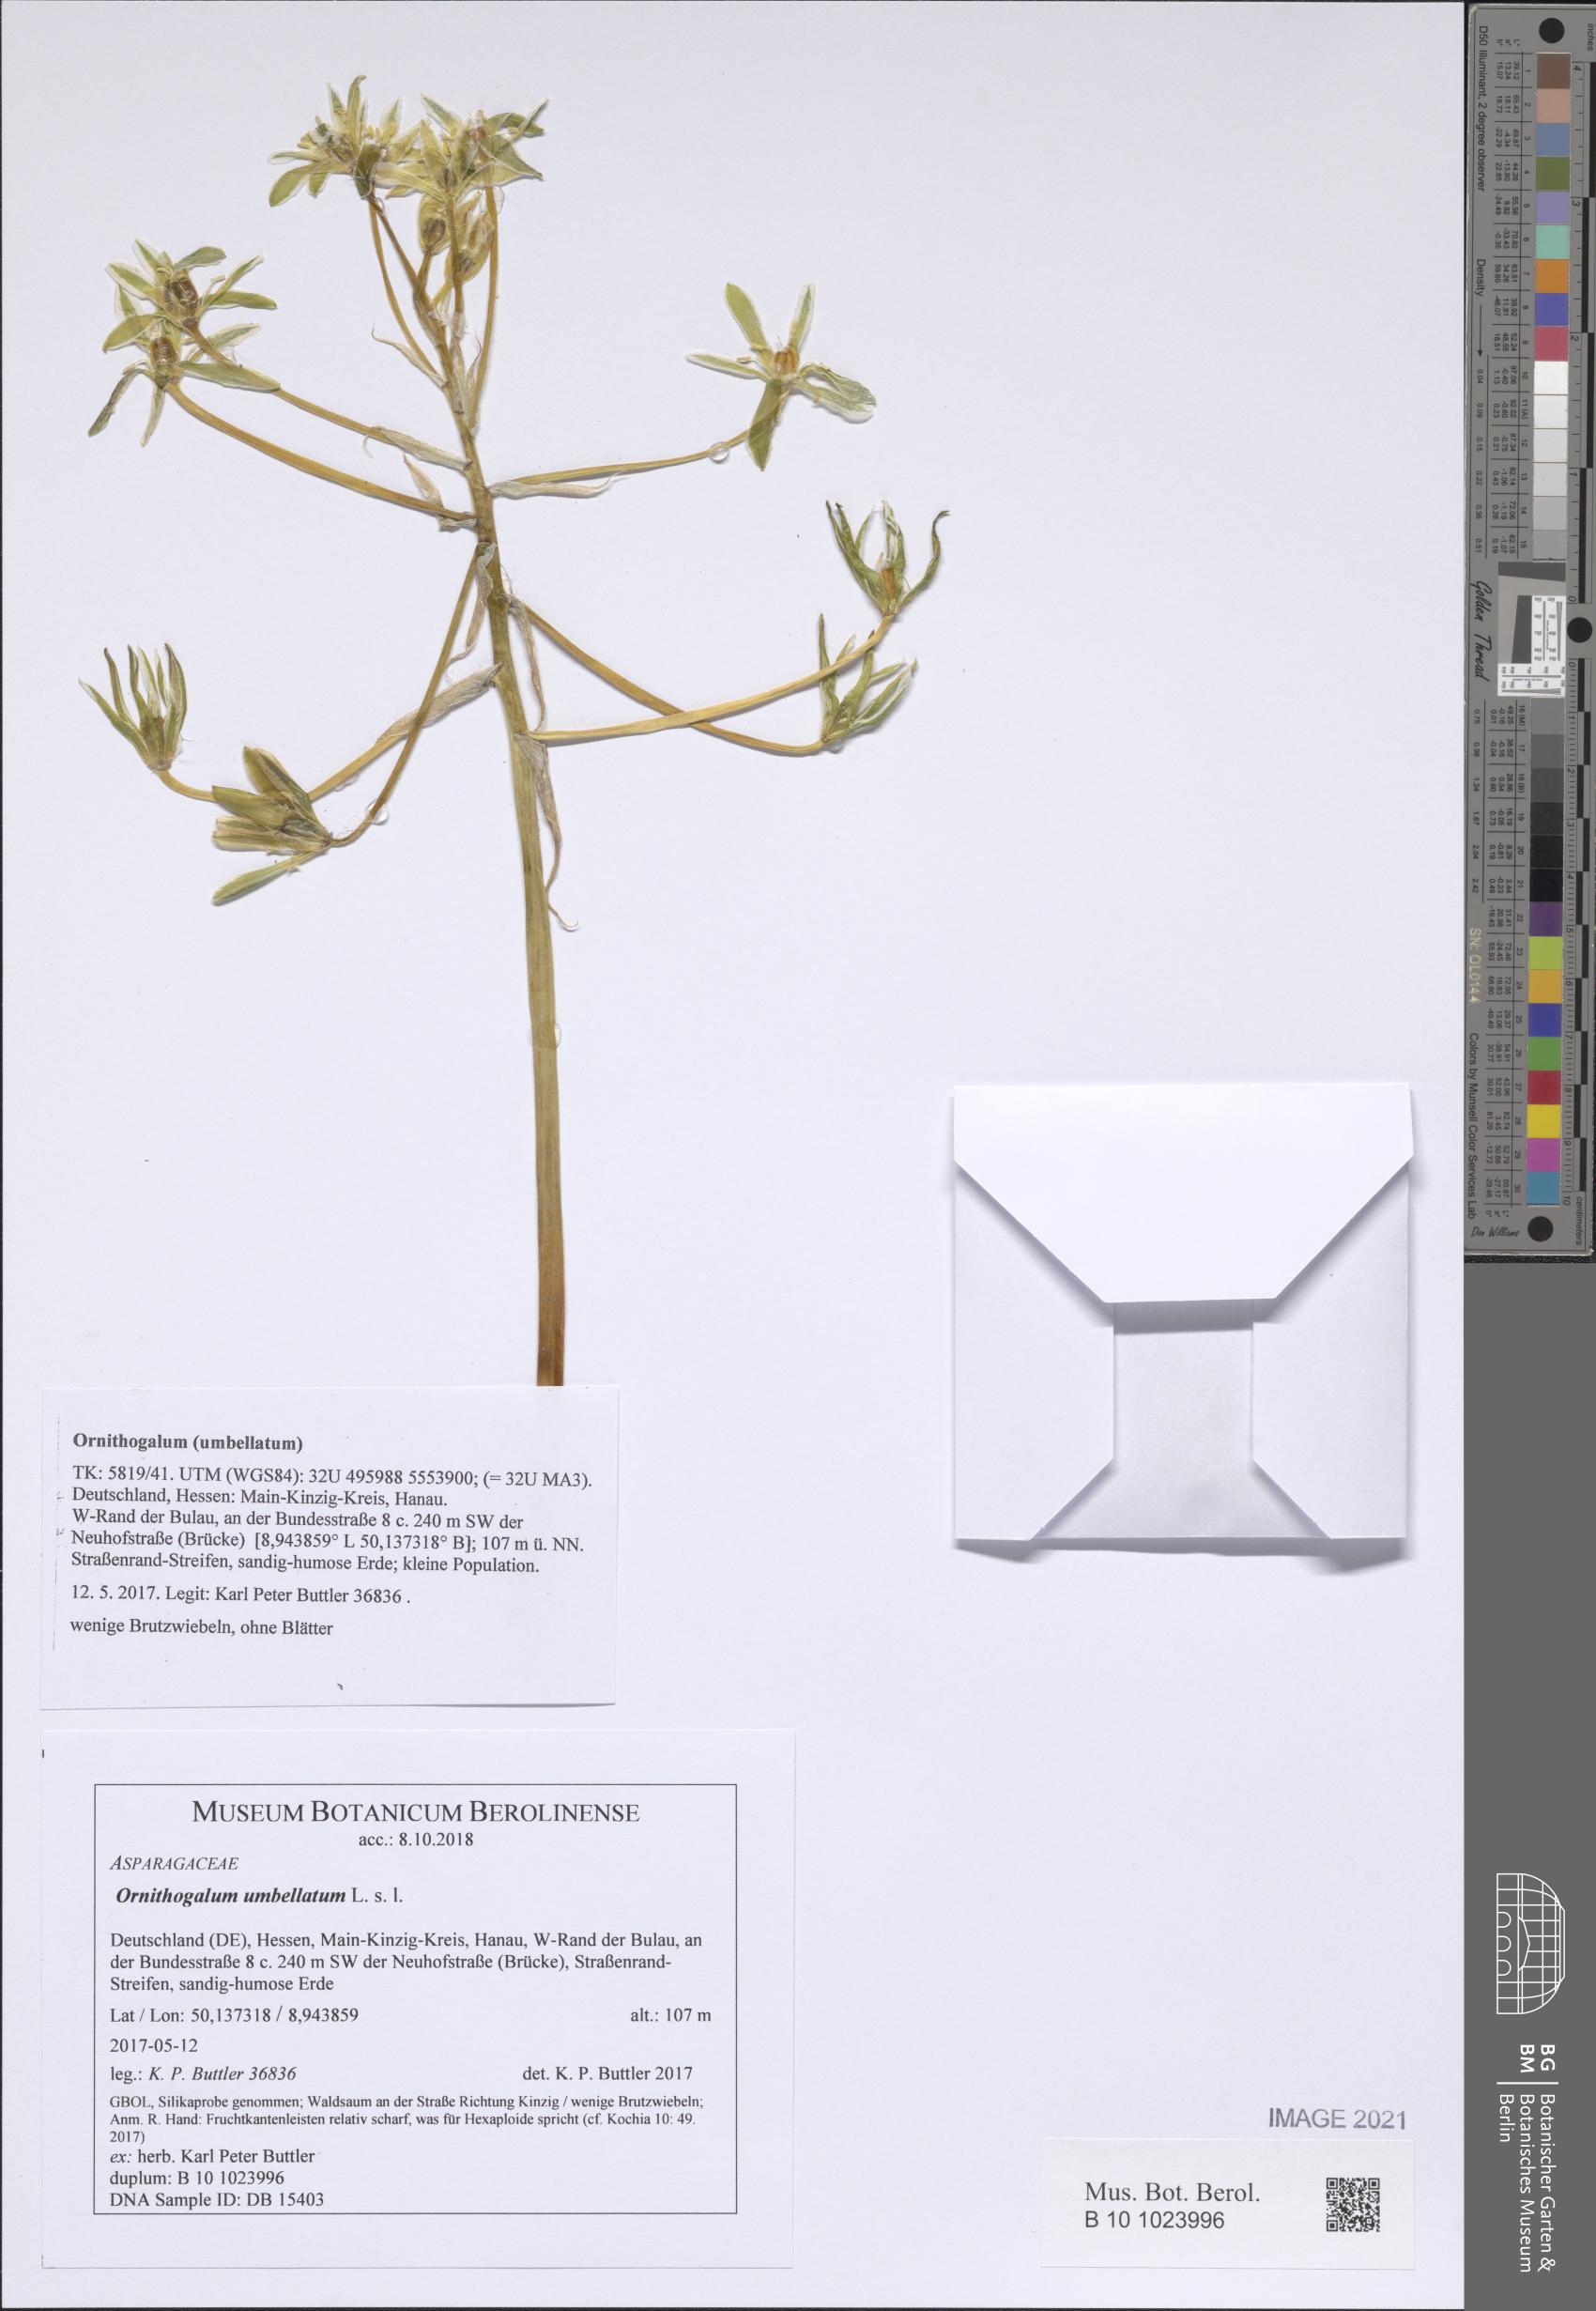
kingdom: Plantae
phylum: Tracheophyta
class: Liliopsida
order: Asparagales
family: Asparagaceae
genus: Ornithogalum
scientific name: Ornithogalum umbellatum
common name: Garden star-of-bethlehem
